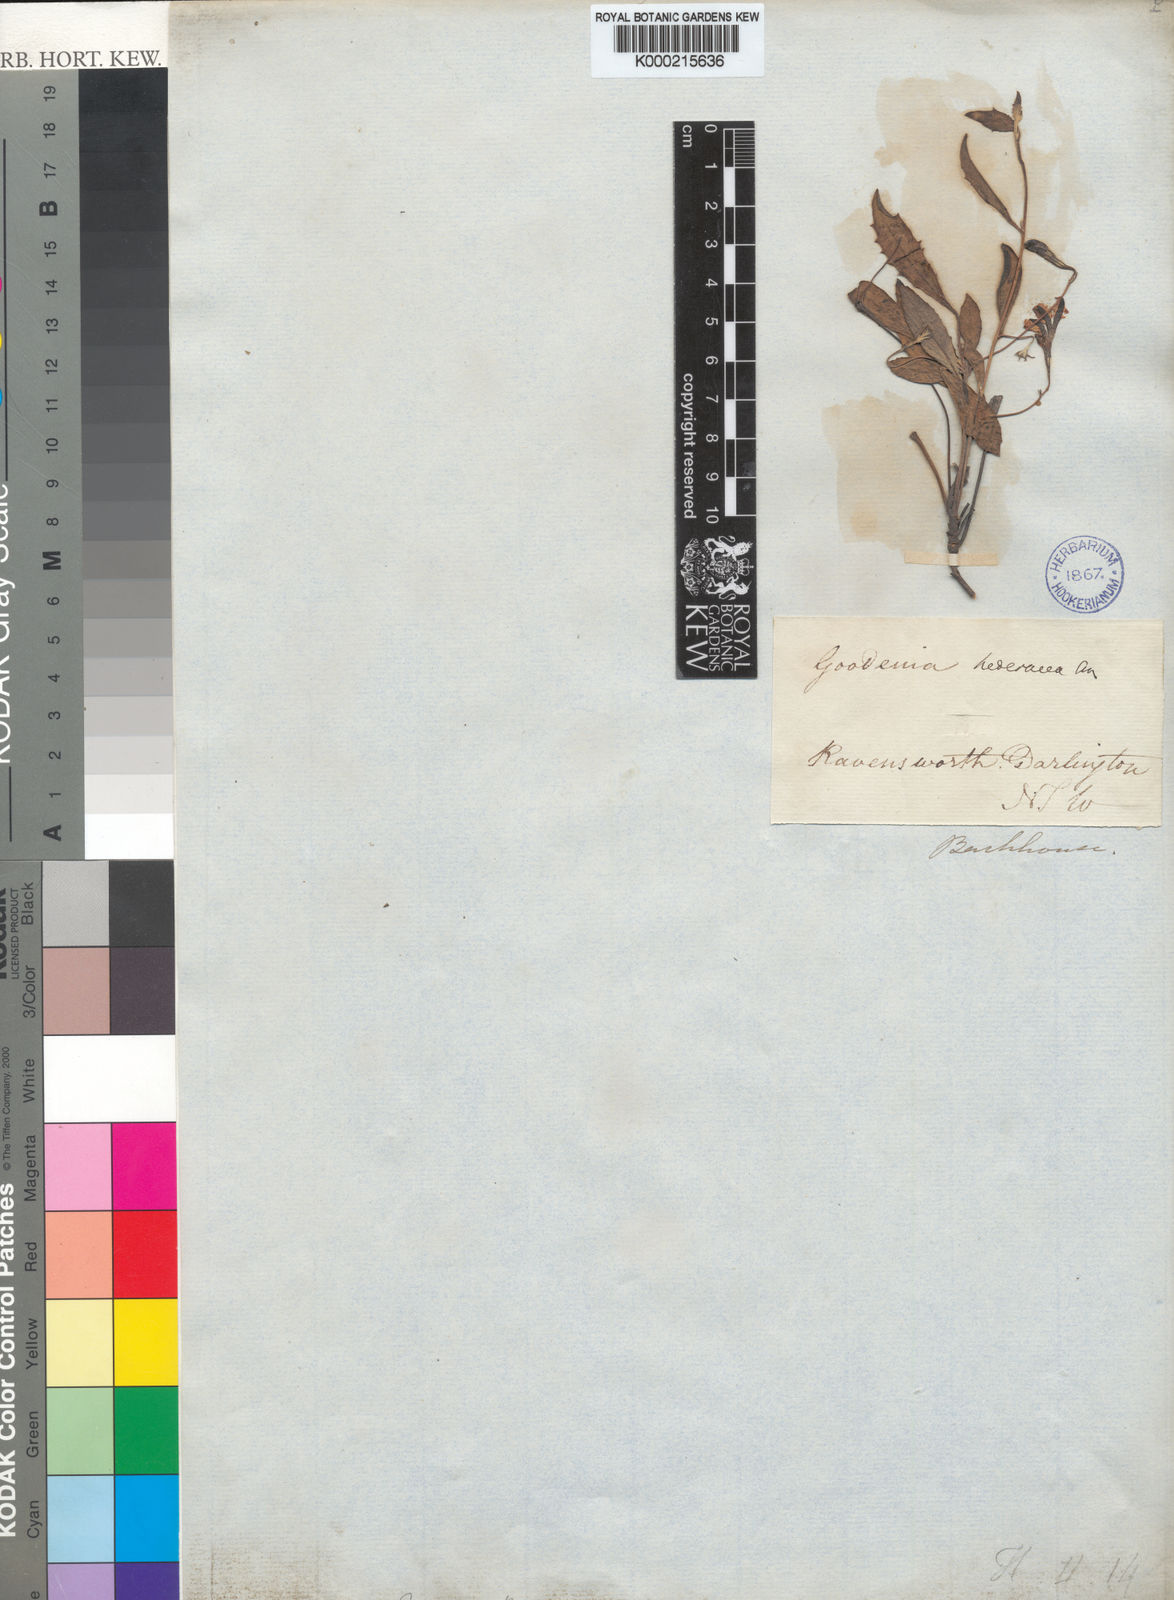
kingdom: Plantae
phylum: Tracheophyta
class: Magnoliopsida
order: Asterales
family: Goodeniaceae
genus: Goodenia
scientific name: Goodenia hederacea
